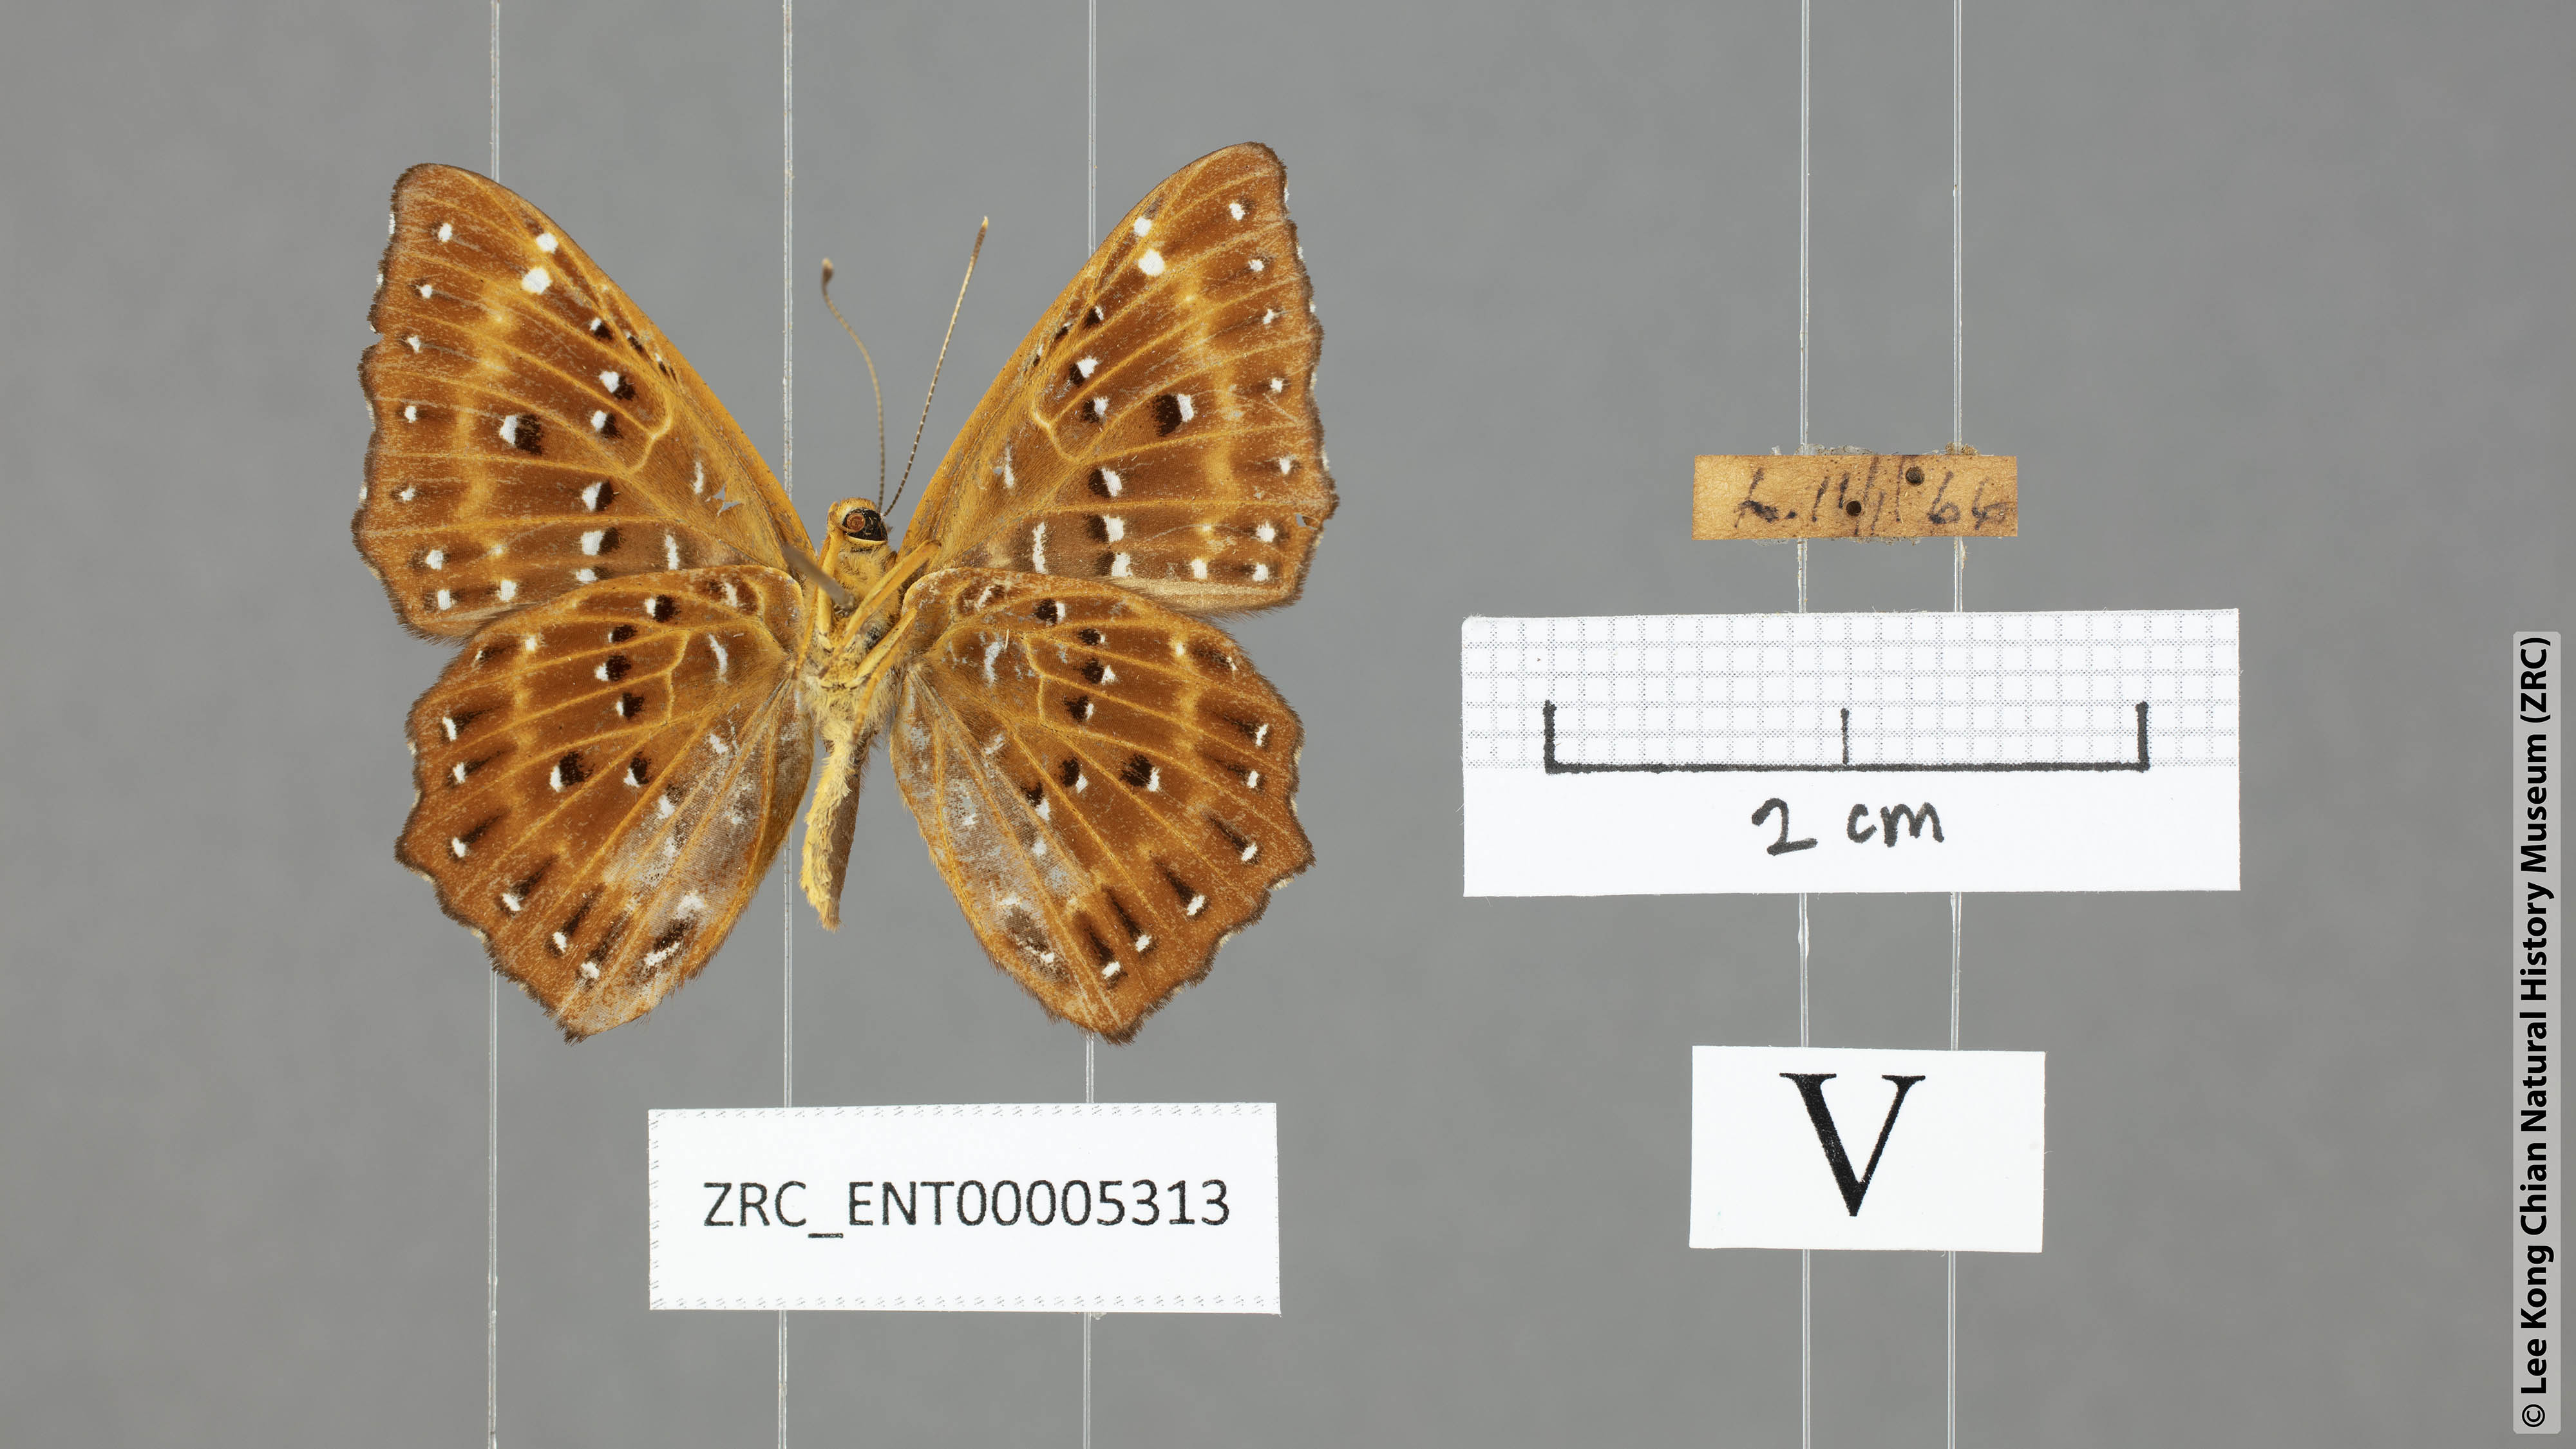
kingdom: Animalia
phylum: Arthropoda
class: Insecta
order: Lepidoptera
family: Riodinidae
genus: Zemeros
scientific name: Zemeros flegyas
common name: Punchinello
